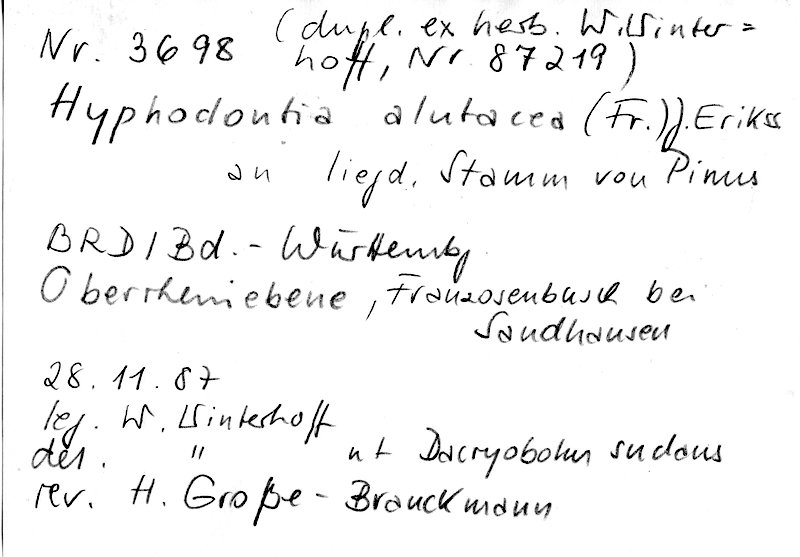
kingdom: Plantae
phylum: Tracheophyta
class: Pinopsida
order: Pinales
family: Pinaceae
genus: Pinus
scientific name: Pinus
